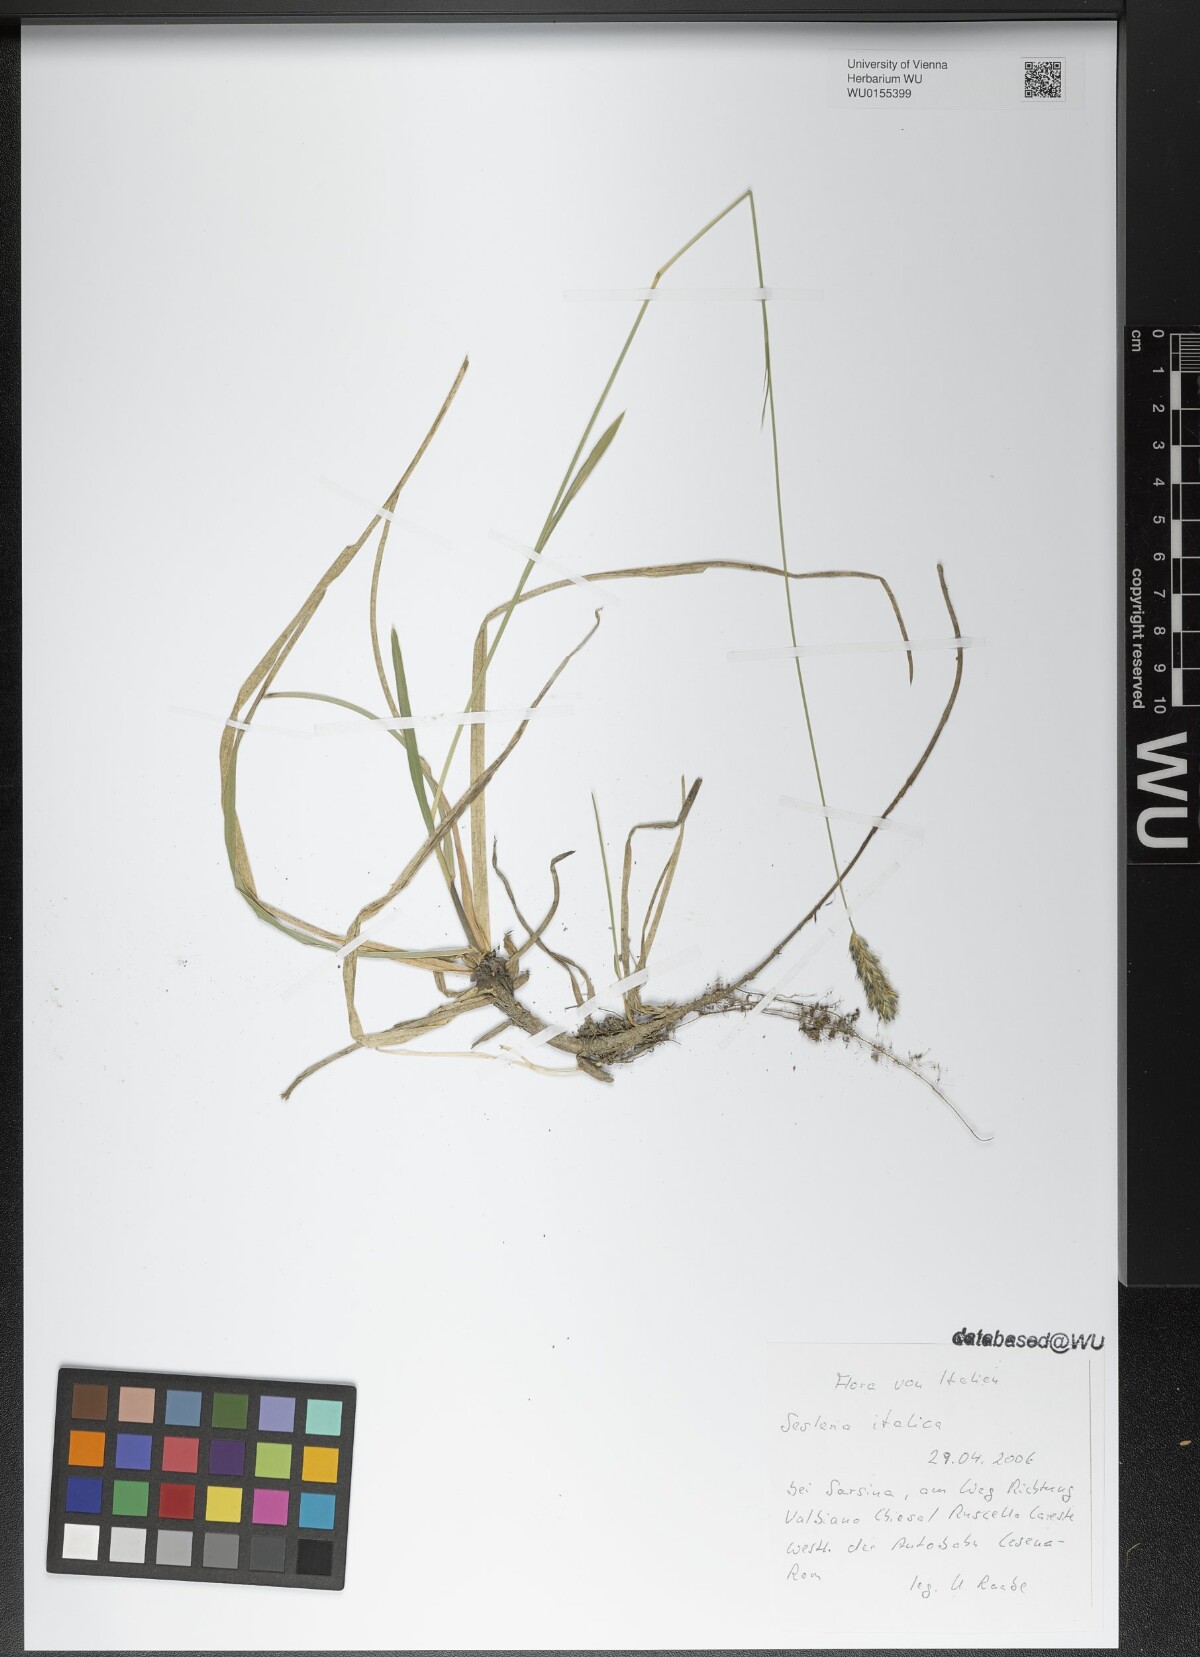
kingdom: Plantae
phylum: Tracheophyta
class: Liliopsida
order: Poales
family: Poaceae
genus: Sesleria
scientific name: Sesleria italica
